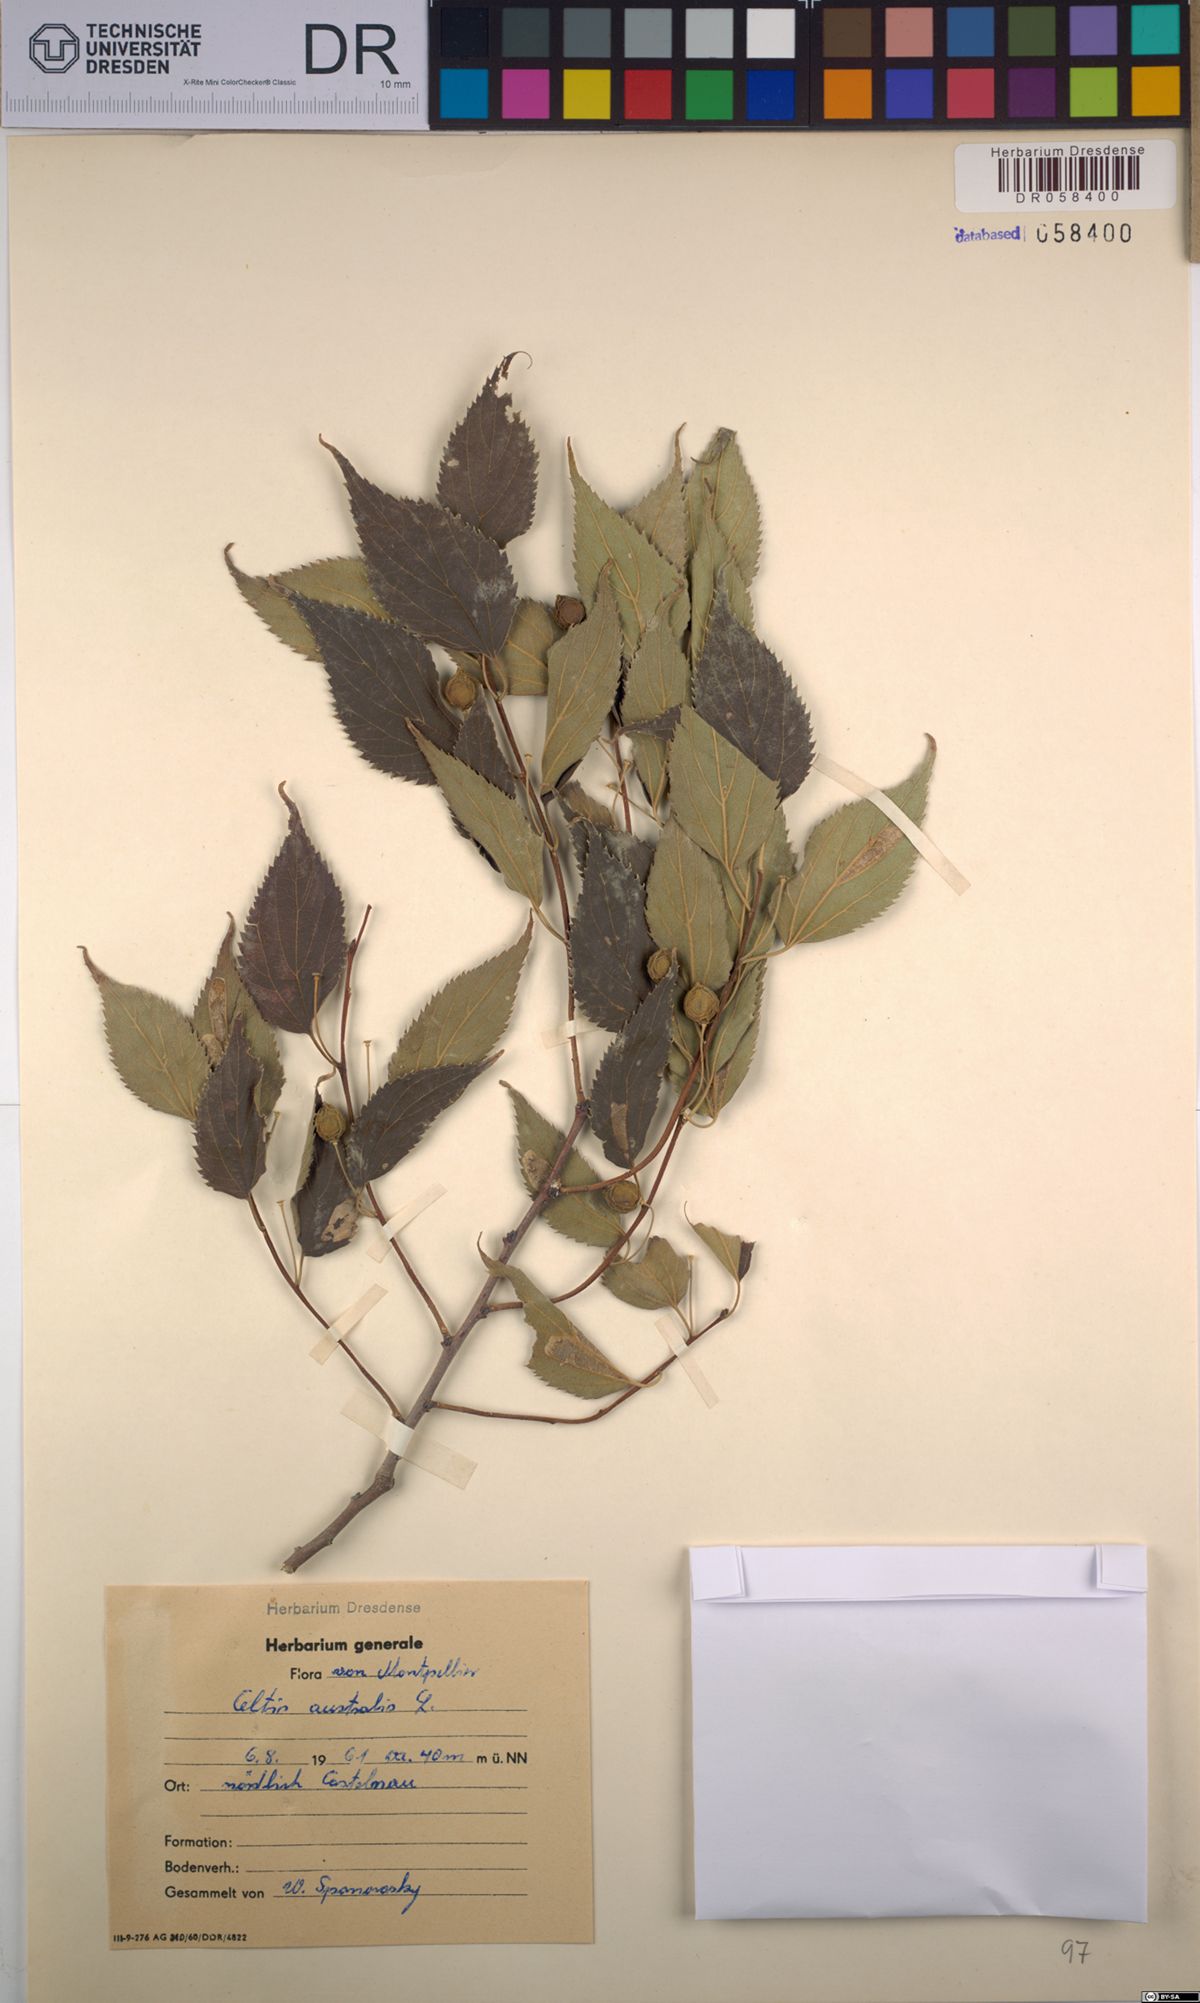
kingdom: Plantae
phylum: Tracheophyta
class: Magnoliopsida
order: Rosales
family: Cannabaceae
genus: Celtis
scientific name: Celtis australis
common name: European hackberry
